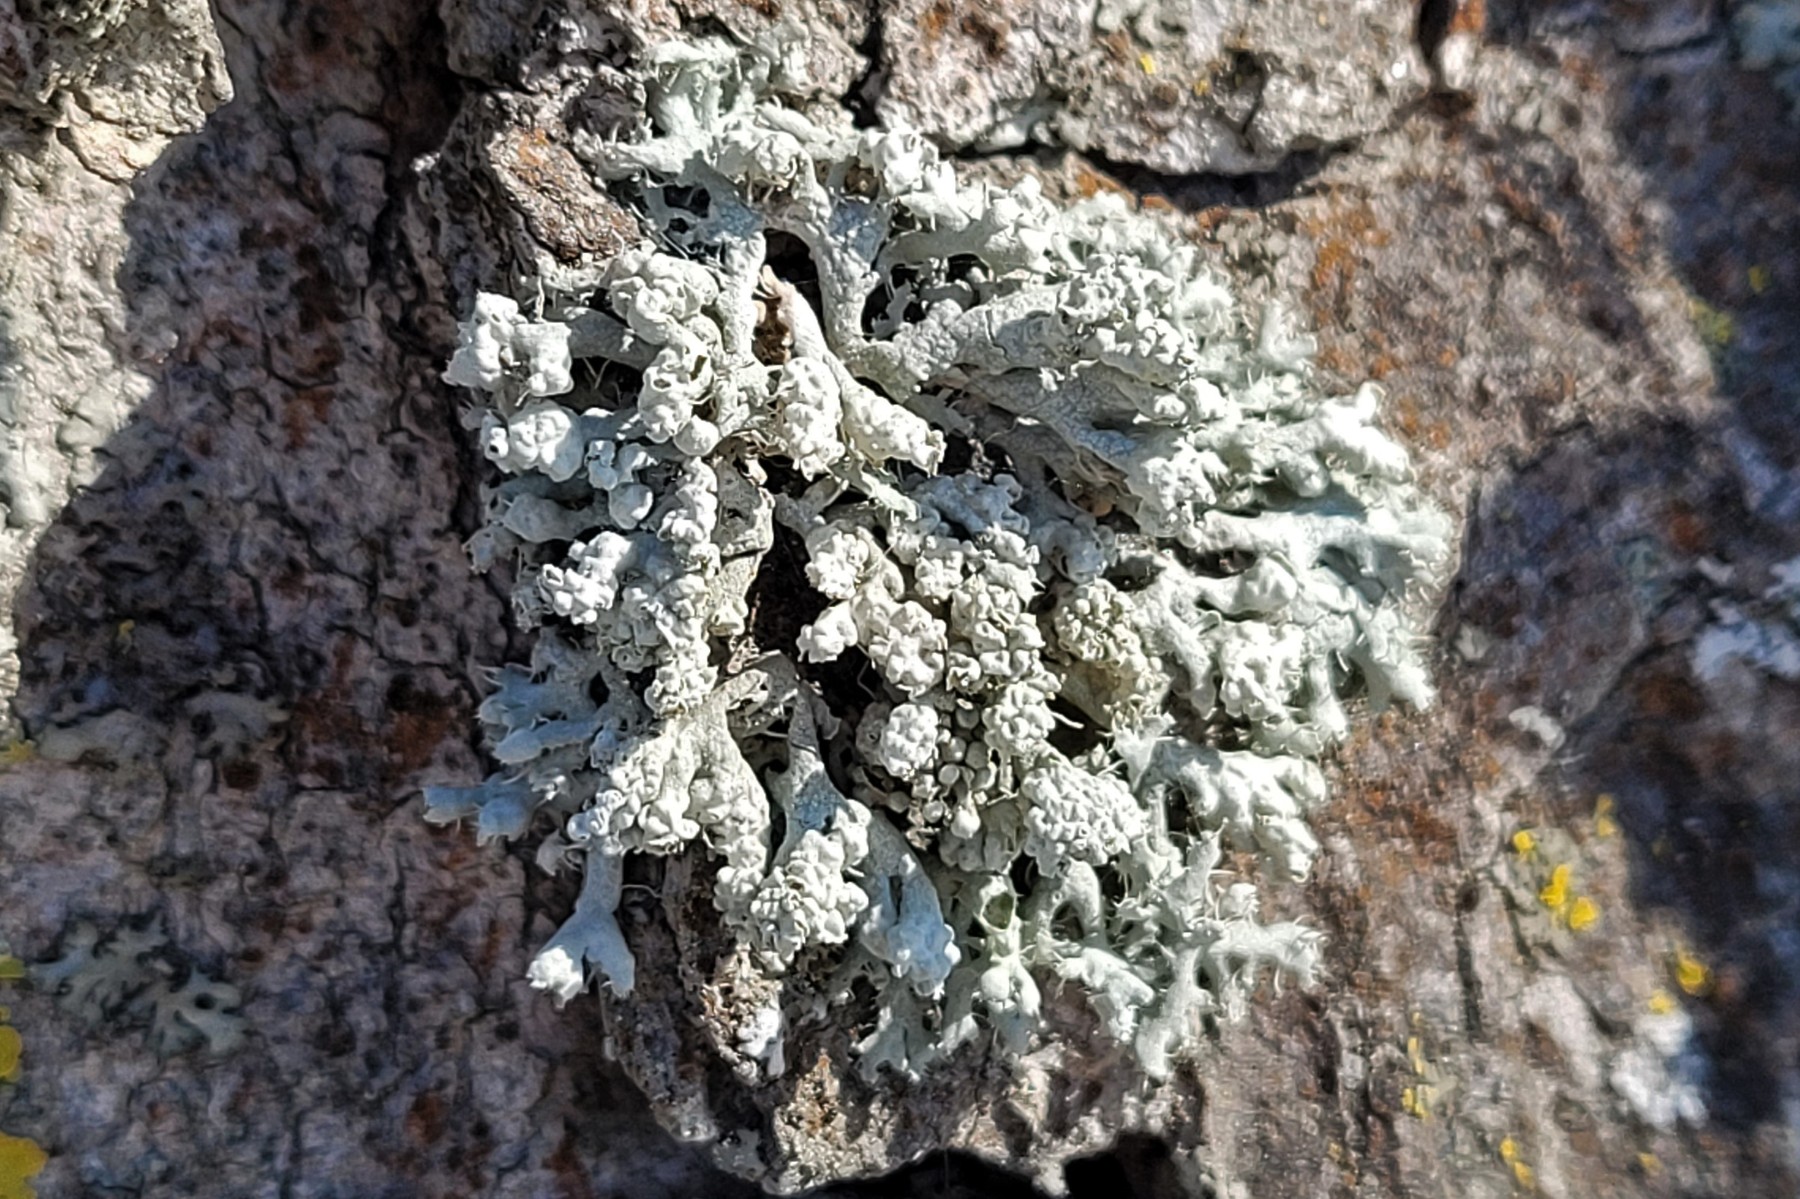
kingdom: Fungi
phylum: Ascomycota
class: Lecanoromycetes
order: Caliciales
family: Physciaceae
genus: Physcia
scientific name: Physcia adscendens
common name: hætte-rosetlav
